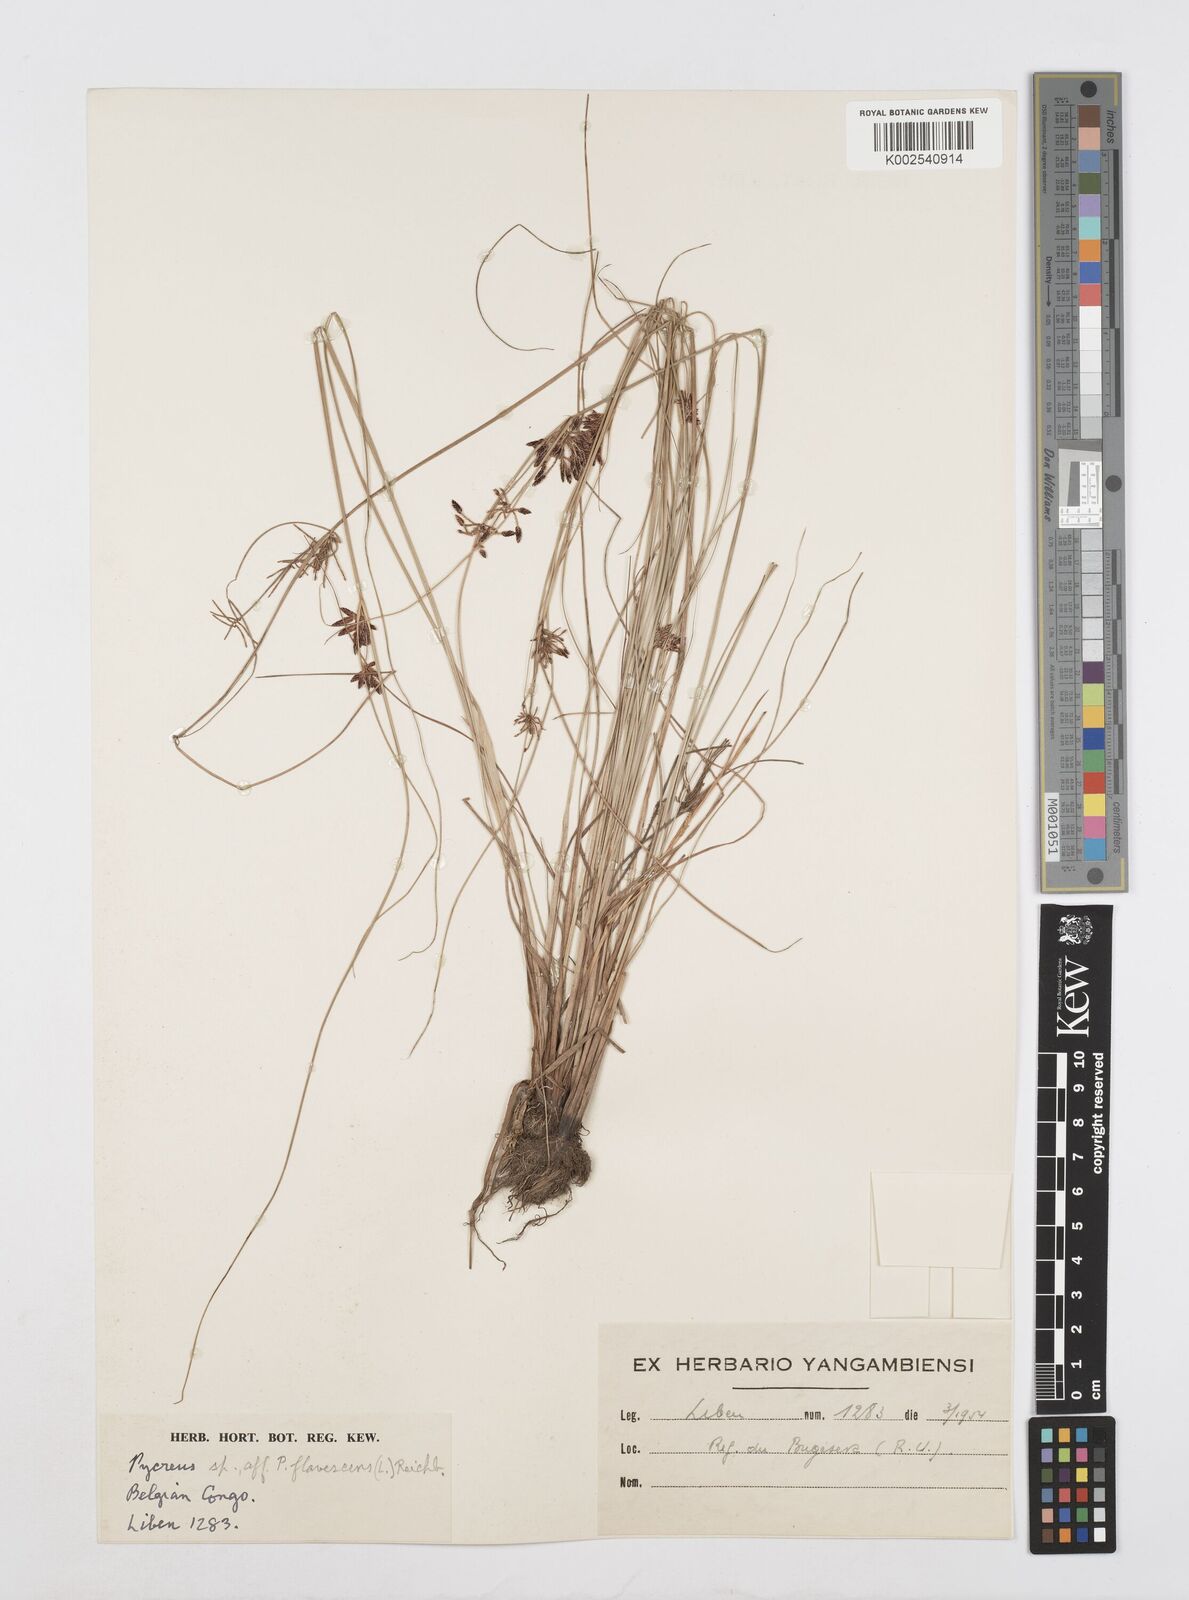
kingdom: Plantae
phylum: Tracheophyta
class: Liliopsida
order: Poales
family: Cyperaceae
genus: Cyperus
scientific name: Cyperus lipopygmaeus
